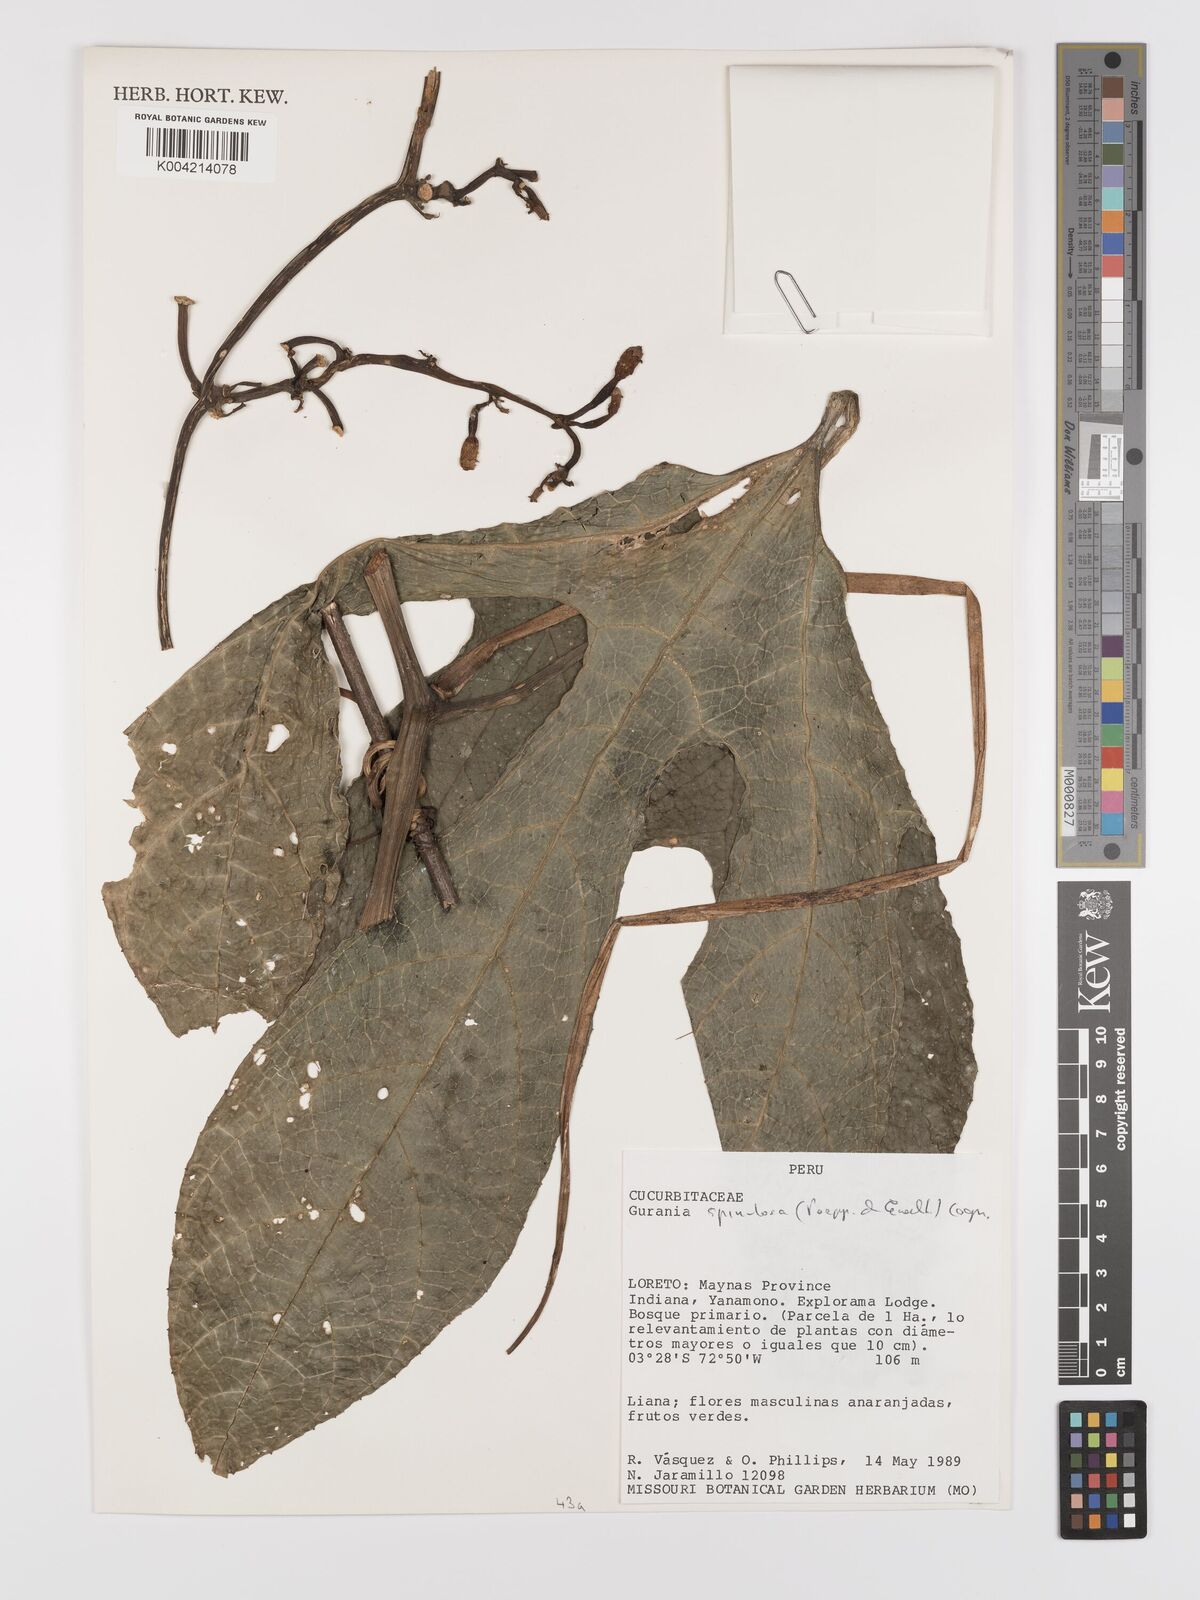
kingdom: Plantae
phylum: Tracheophyta
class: Magnoliopsida
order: Cucurbitales
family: Cucurbitaceae
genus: Gurania
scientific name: Gurania lobata
